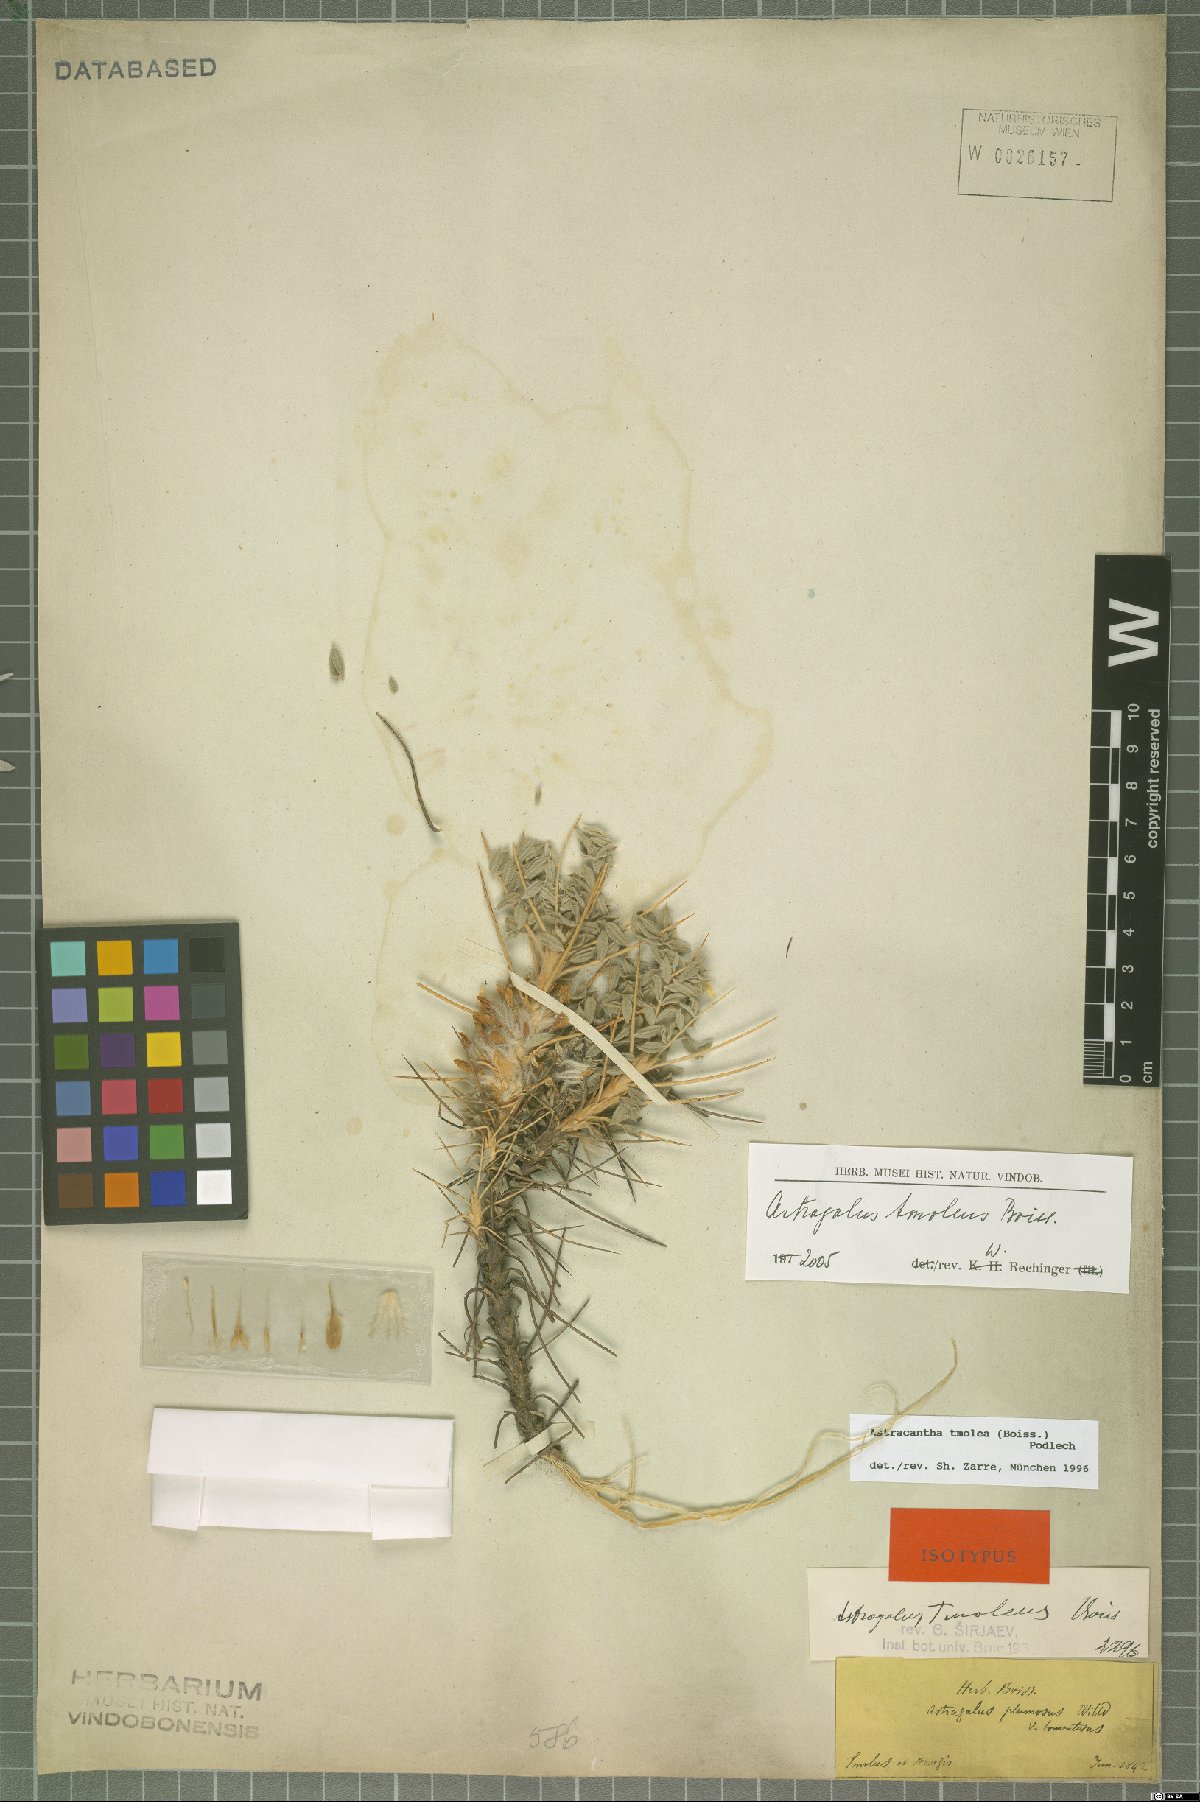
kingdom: Plantae
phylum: Tracheophyta
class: Magnoliopsida
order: Fabales
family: Fabaceae
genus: Astragalus
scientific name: Astragalus tmoleus
